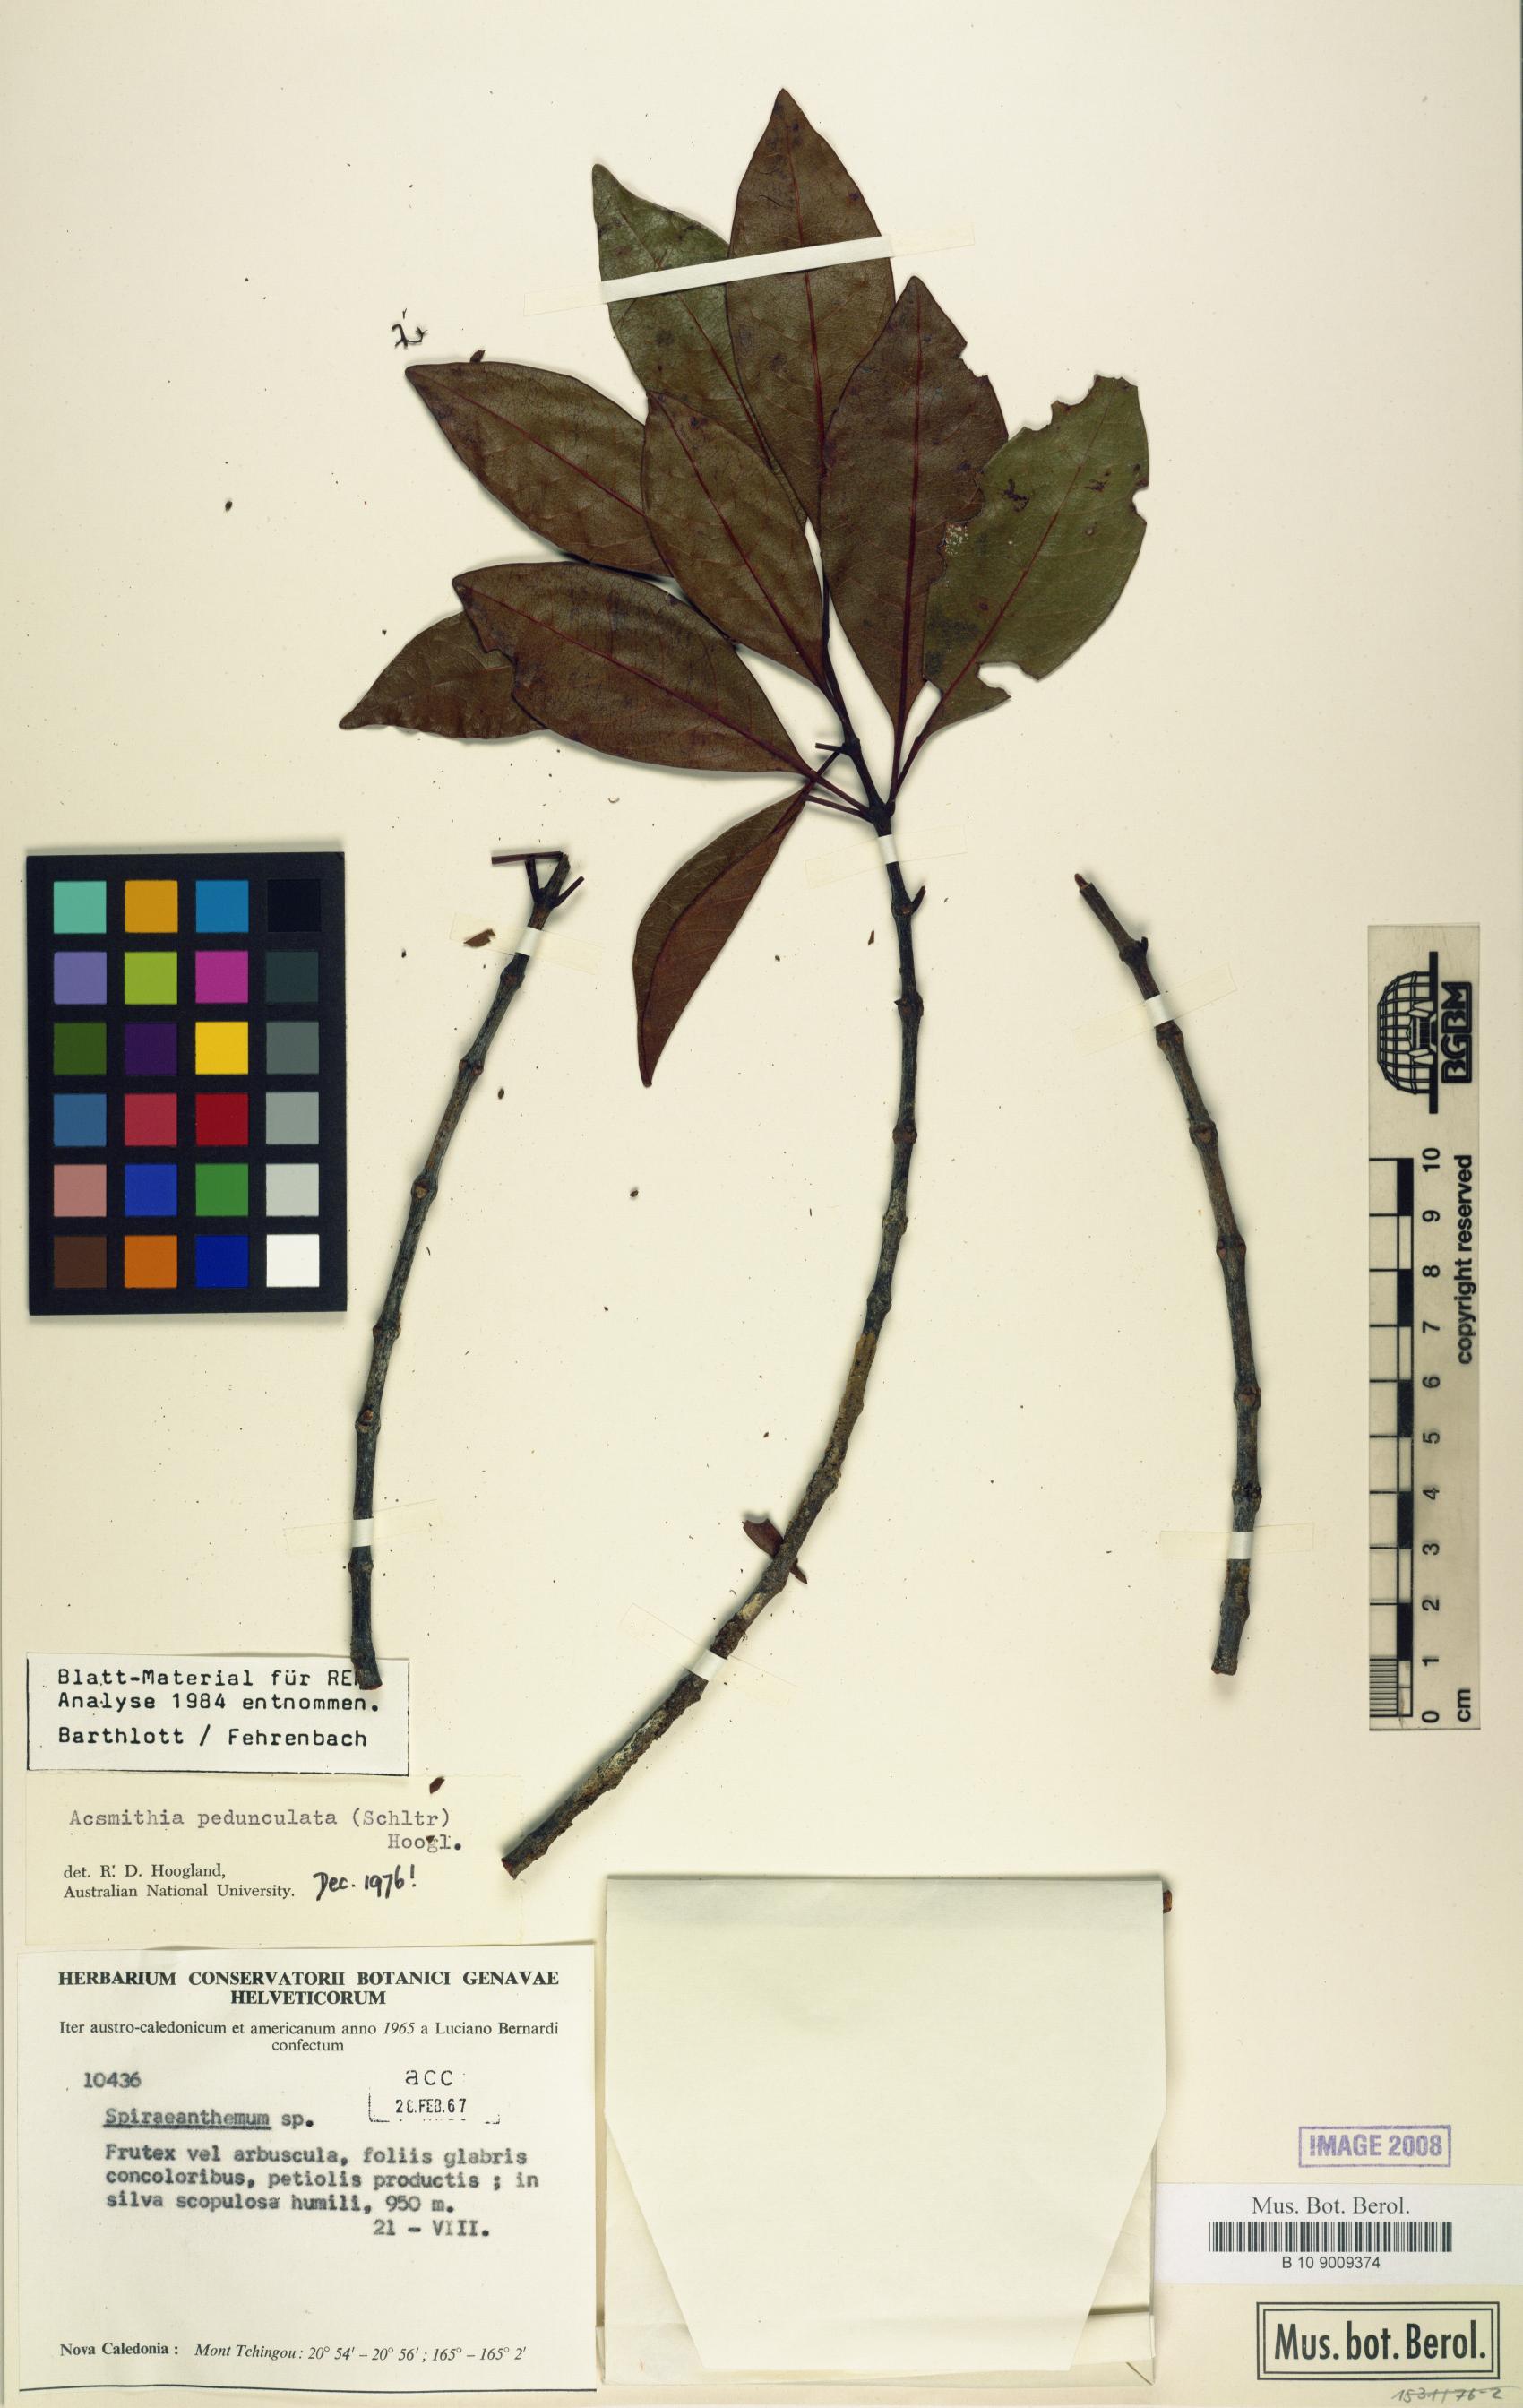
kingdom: Plantae
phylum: Tracheophyta
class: Magnoliopsida
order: Oxalidales
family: Cunoniaceae
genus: Spiraeanthemum
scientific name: Spiraeanthemum pedunculatum
